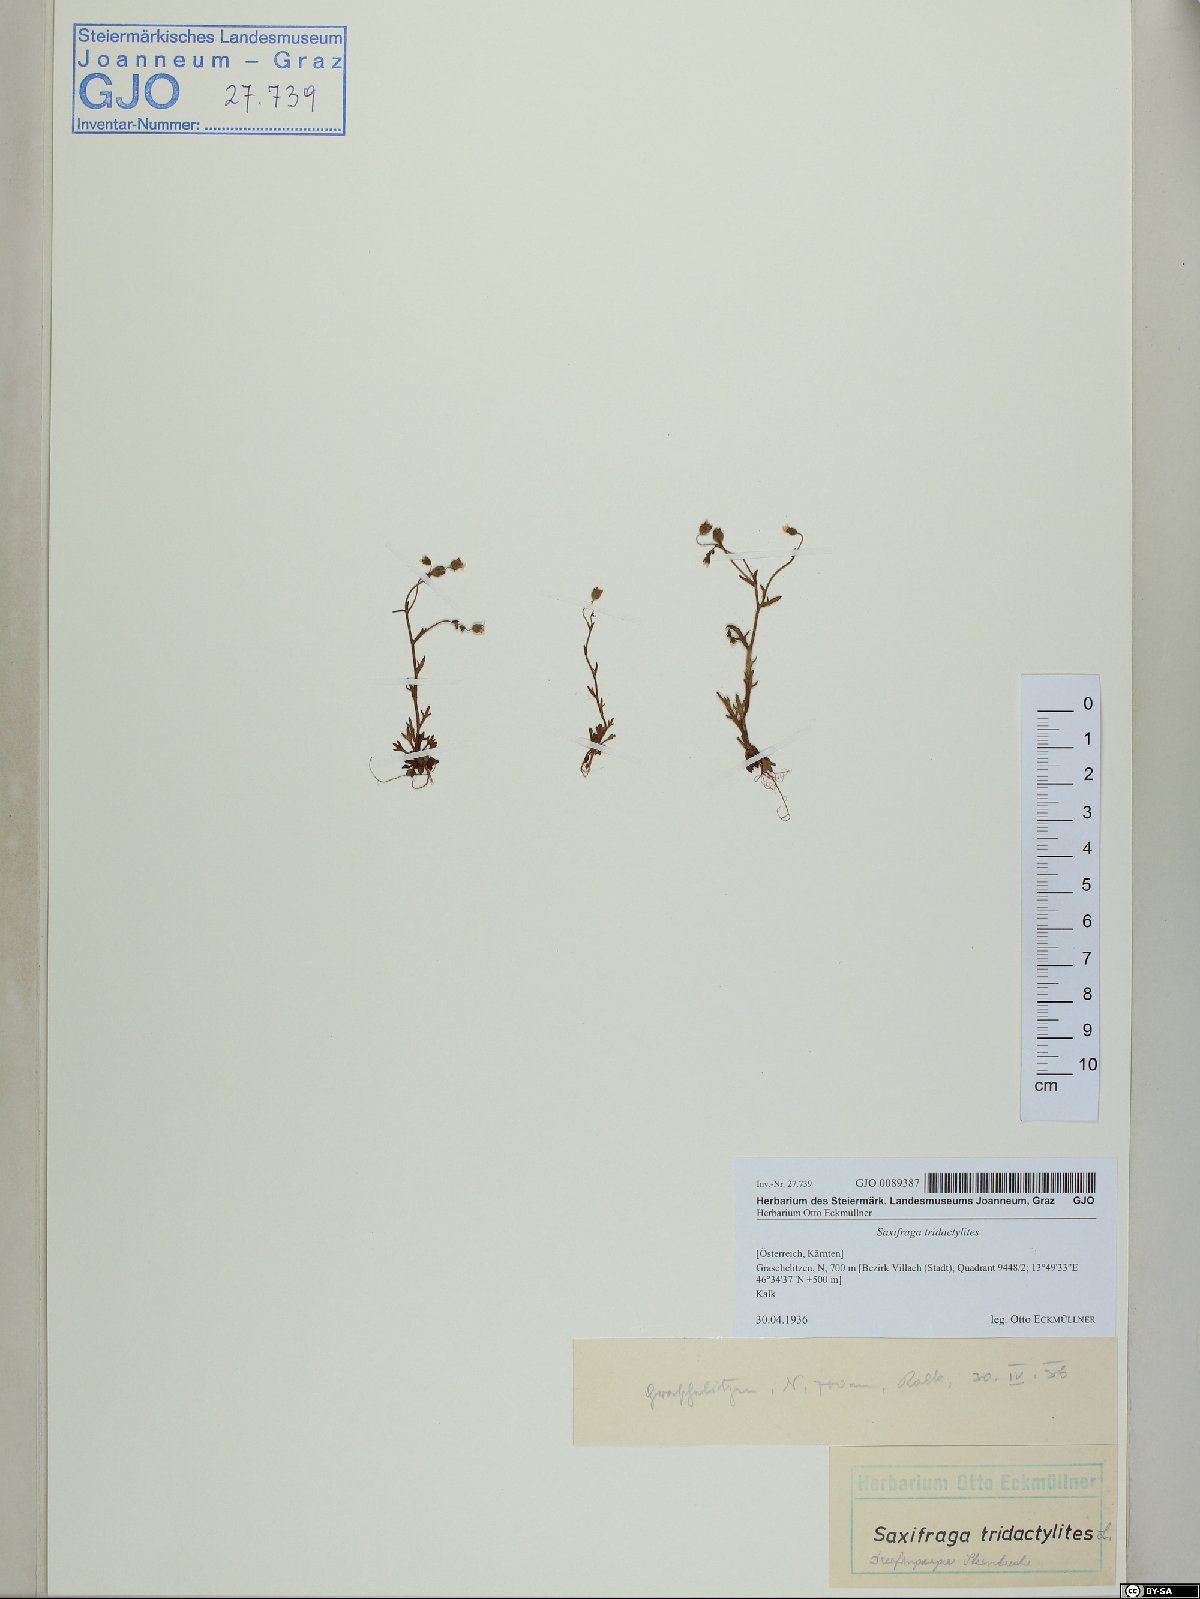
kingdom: Plantae
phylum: Tracheophyta
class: Magnoliopsida
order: Saxifragales
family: Saxifragaceae
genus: Saxifraga
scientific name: Saxifraga tridactylites
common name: Rue-leaved saxifrage
